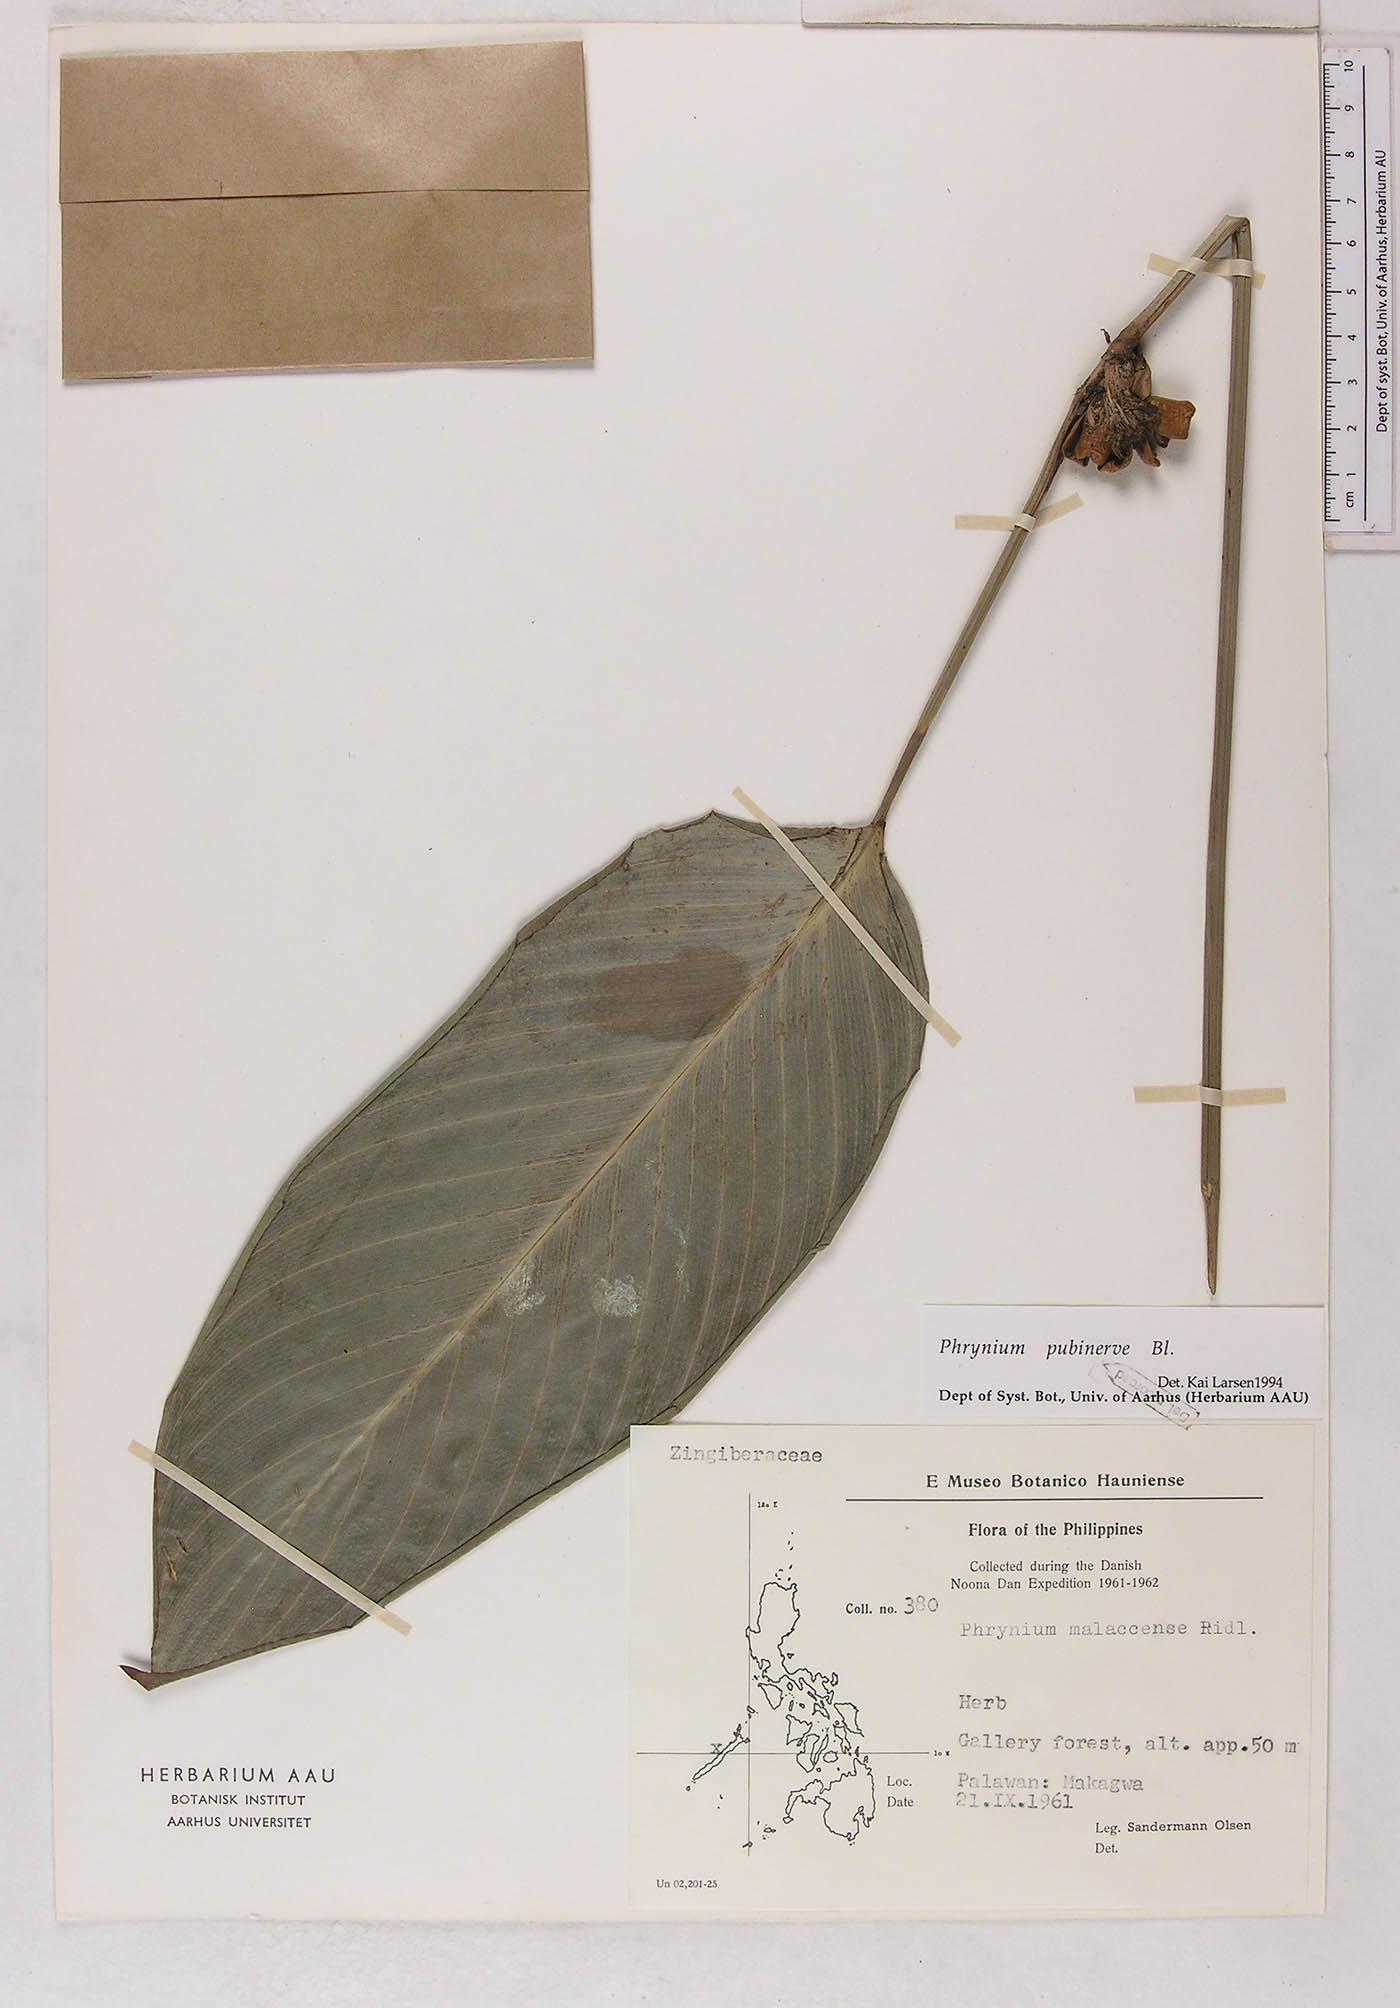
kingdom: Plantae
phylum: Tracheophyta
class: Liliopsida
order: Zingiberales
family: Marantaceae
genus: Phrynium
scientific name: Phrynium pubinerve
